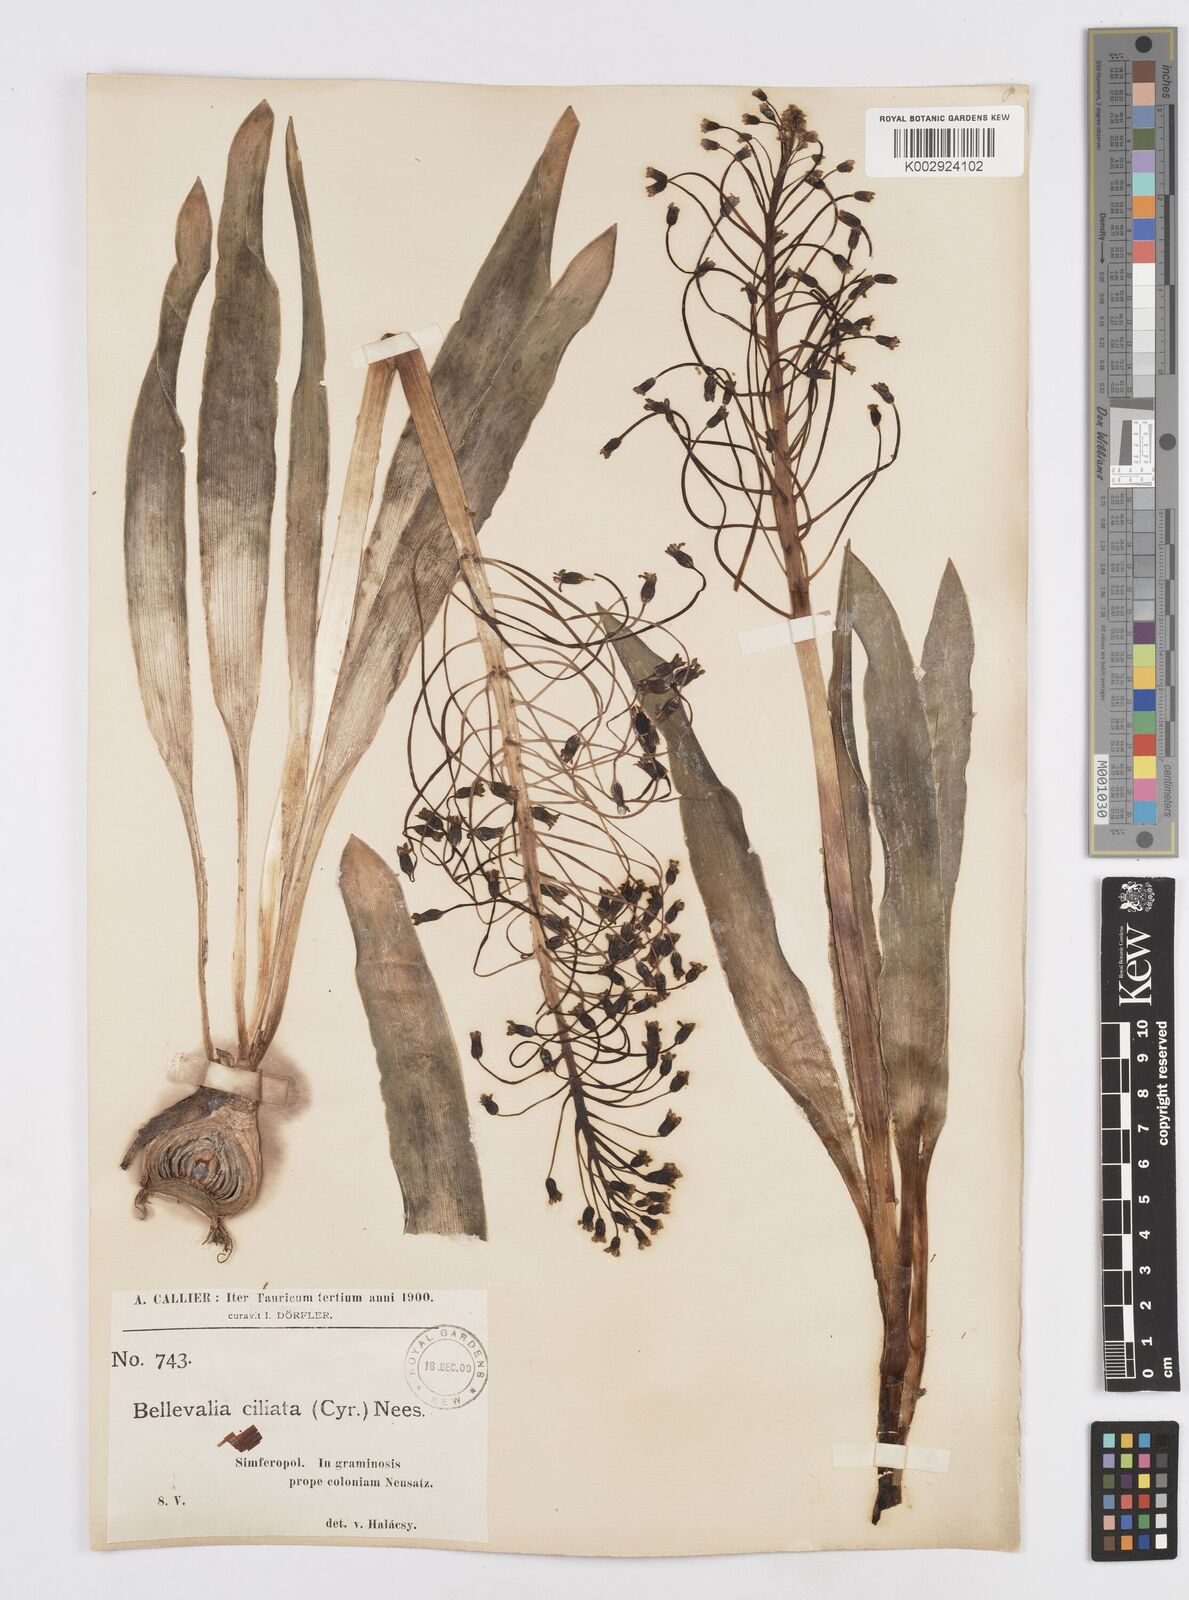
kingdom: Plantae
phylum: Tracheophyta
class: Liliopsida
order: Asparagales
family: Asparagaceae
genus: Bellevalia
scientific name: Bellevalia ciliata
